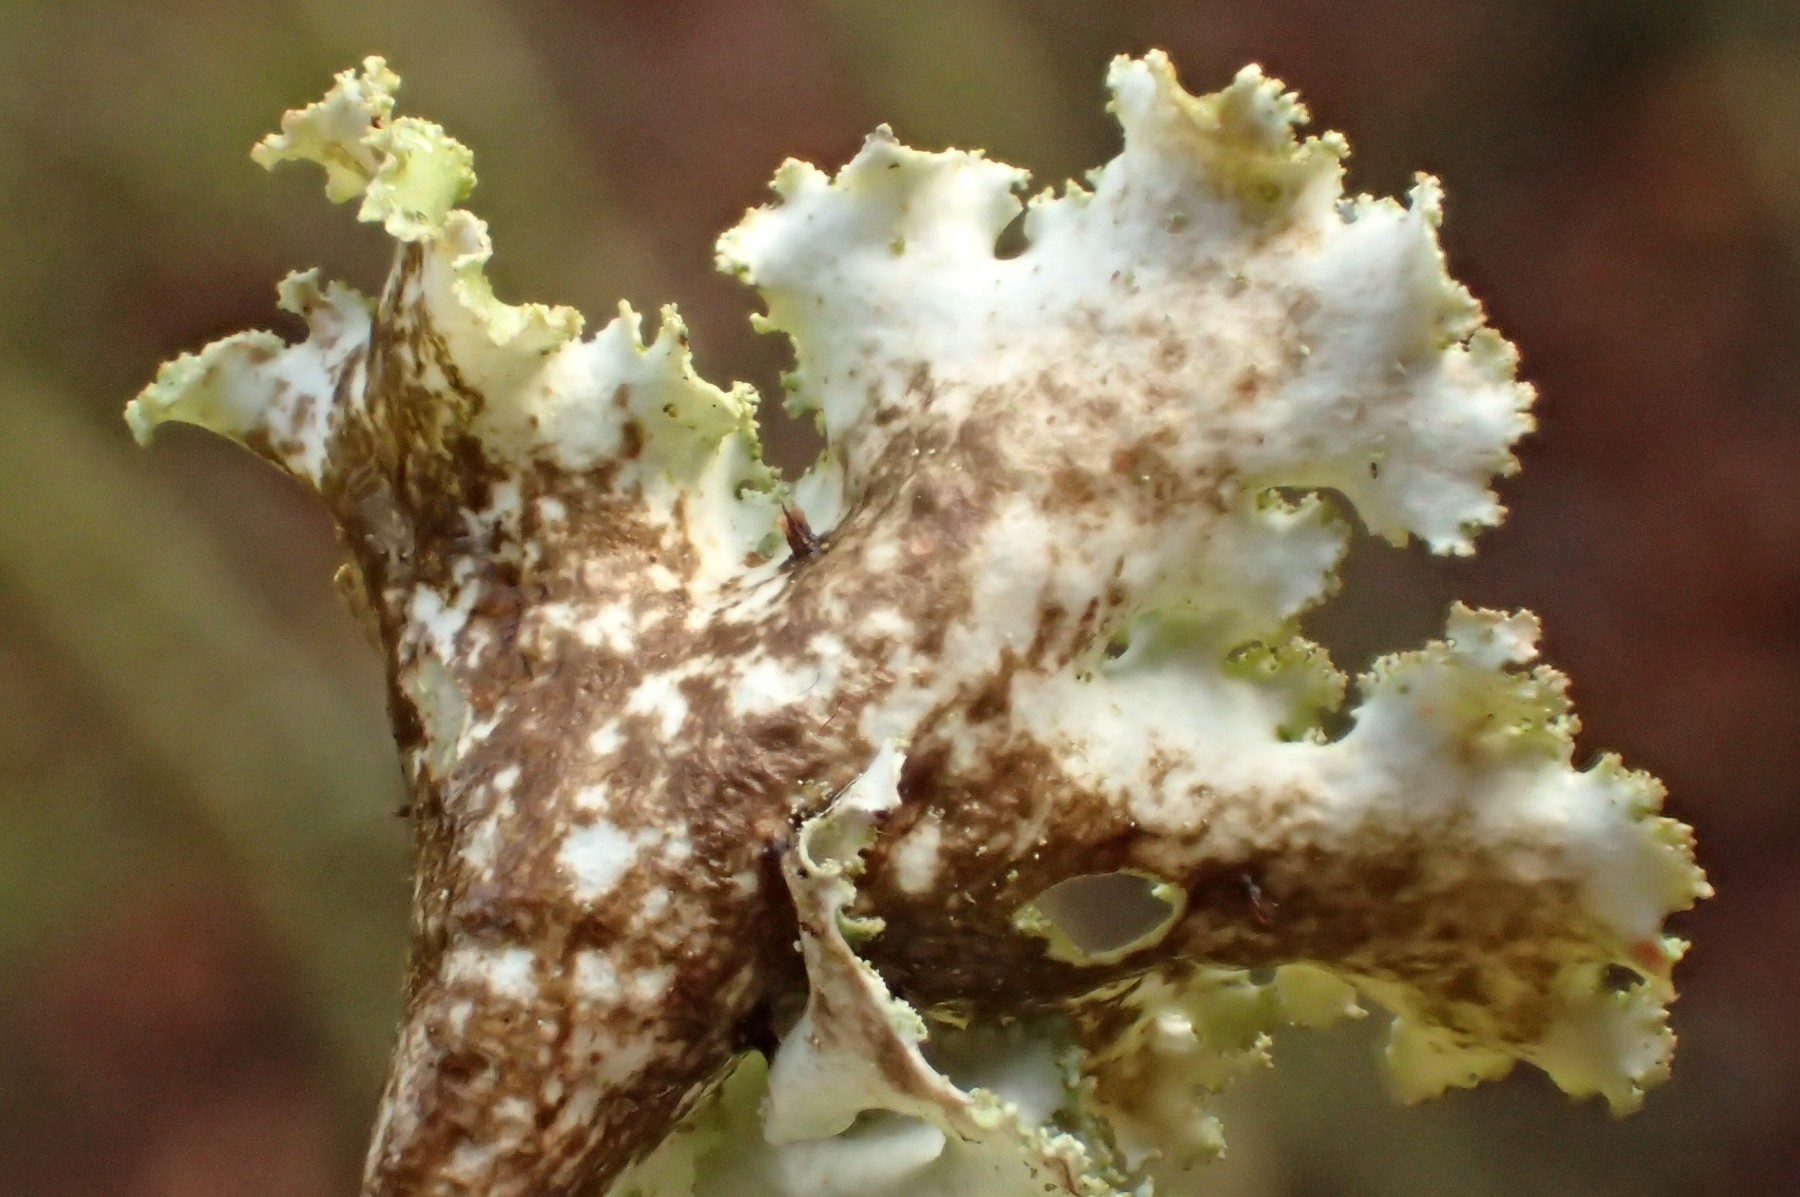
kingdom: Fungi
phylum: Ascomycota
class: Lecanoromycetes
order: Lecanorales
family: Parmeliaceae
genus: Platismatia
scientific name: Platismatia glauca
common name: blågrå papirlav
